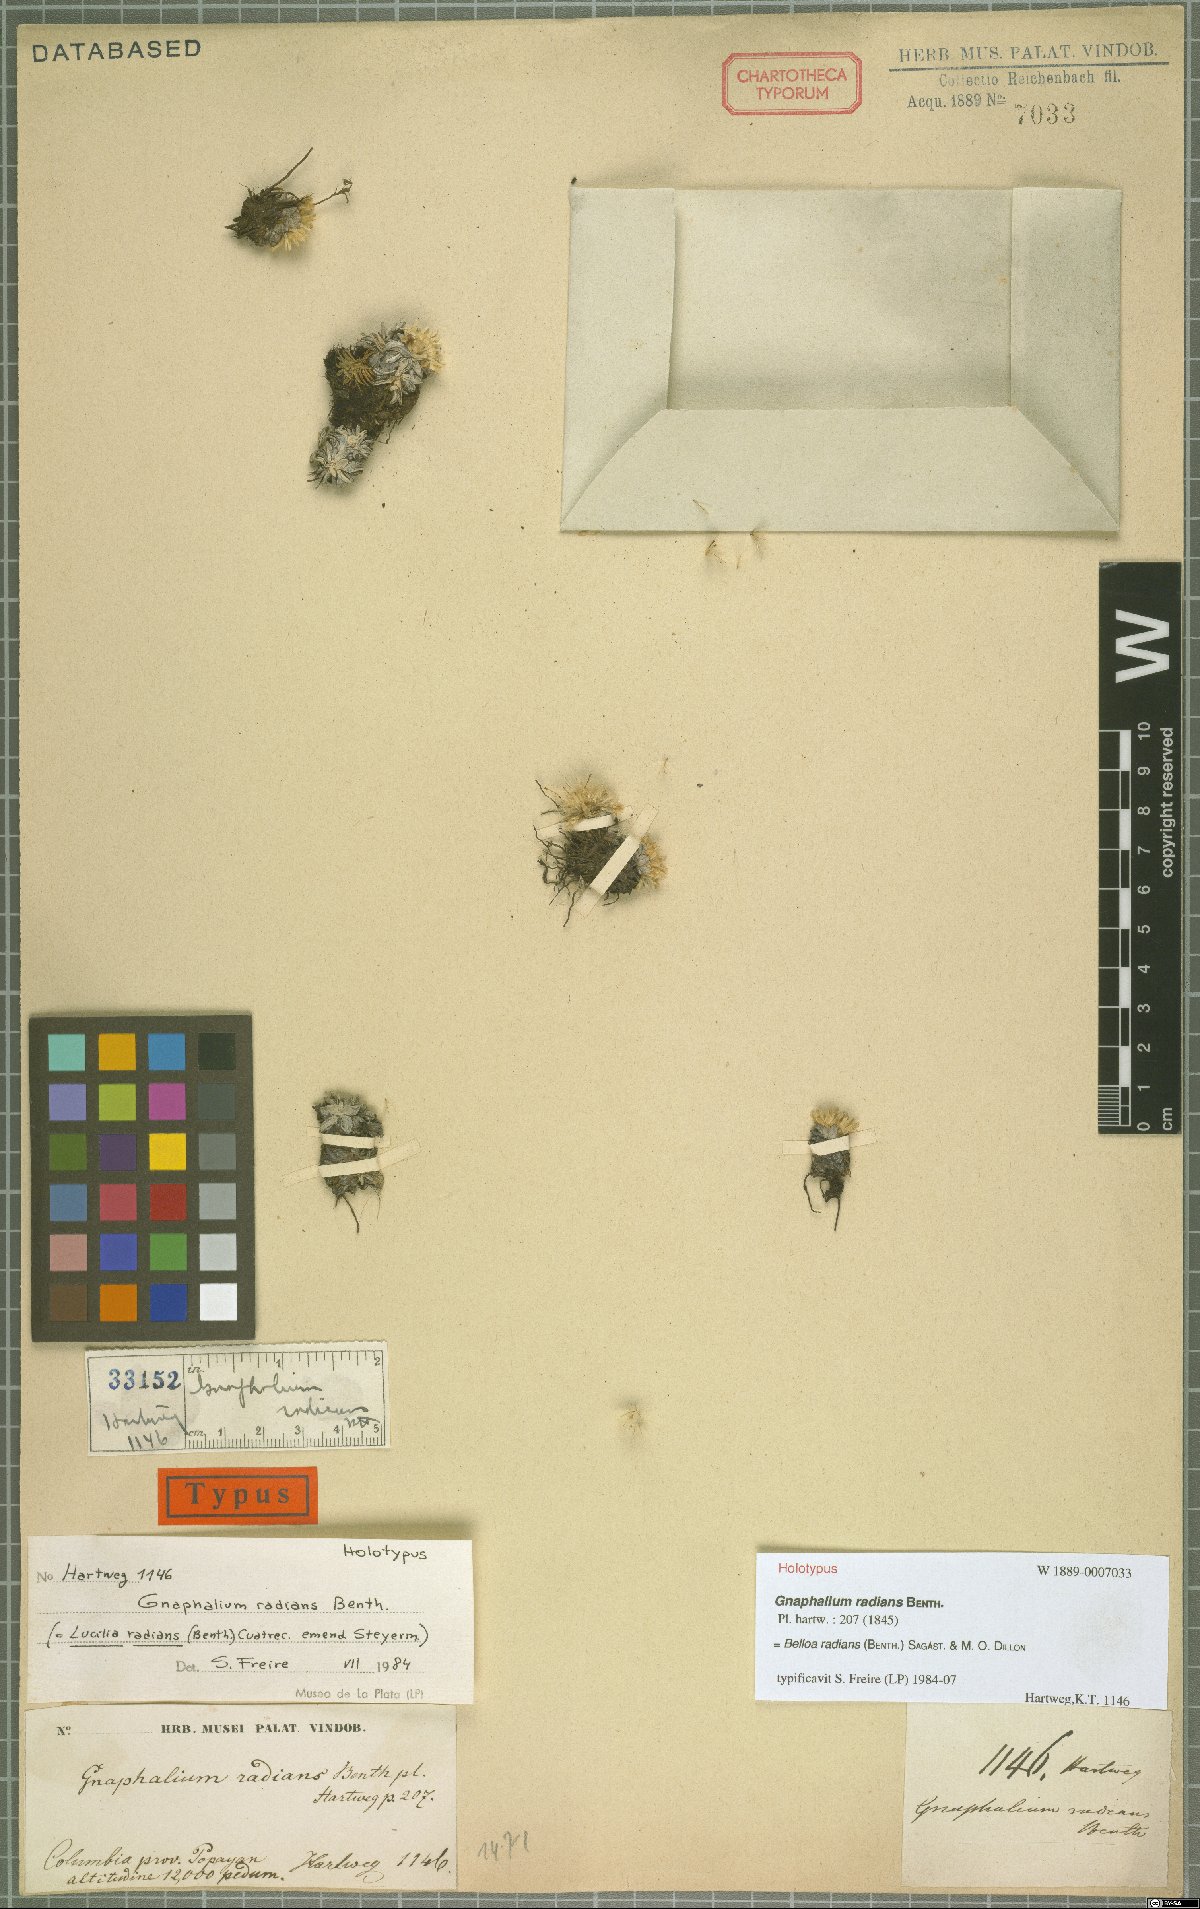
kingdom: Plantae
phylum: Tracheophyta
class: Magnoliopsida
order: Asterales
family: Asteraceae
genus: Mniodes
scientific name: Mniodes radians
